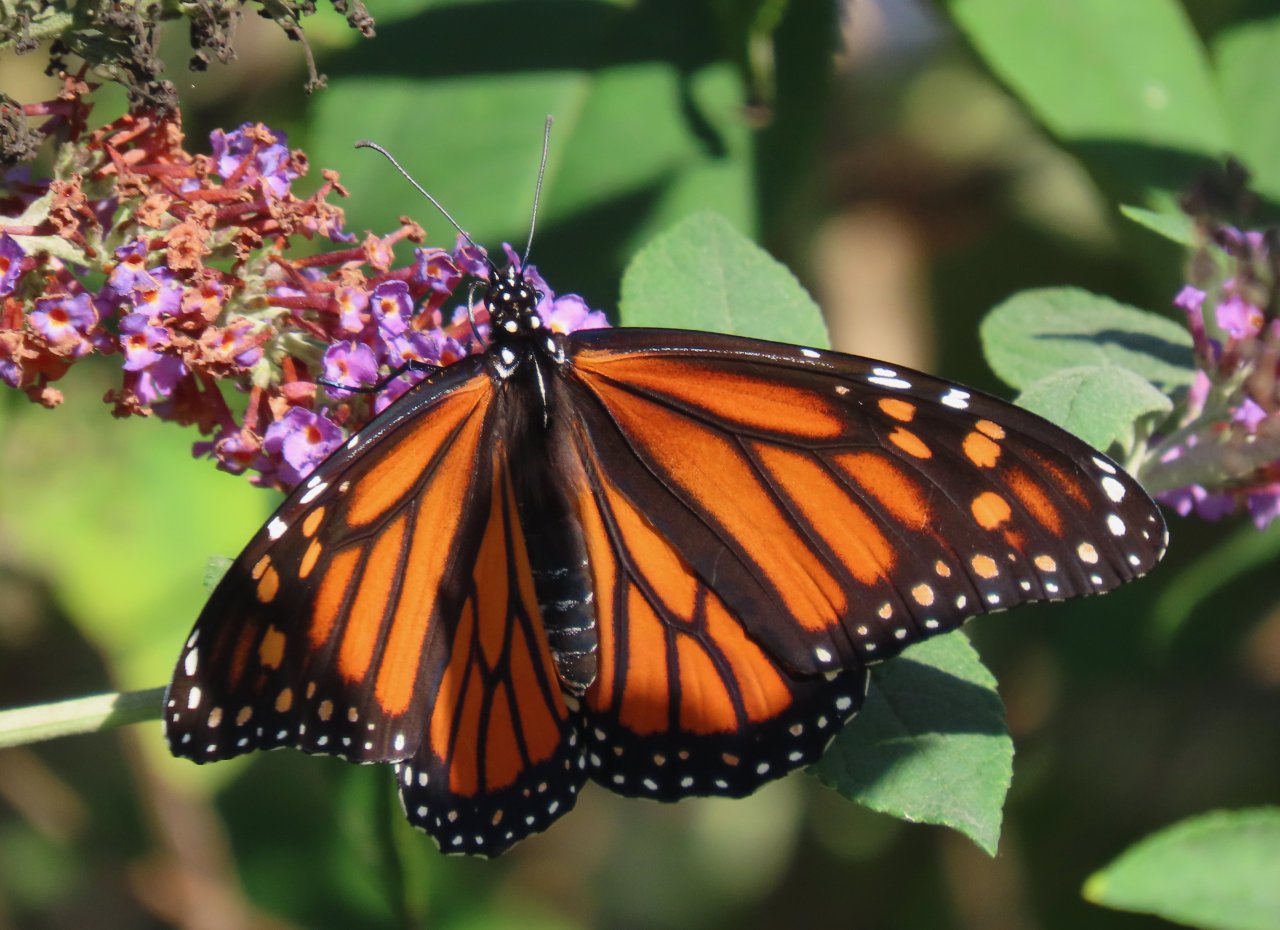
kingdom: Animalia
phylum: Arthropoda
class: Insecta
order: Lepidoptera
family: Nymphalidae
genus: Danaus
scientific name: Danaus plexippus
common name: Monarch
